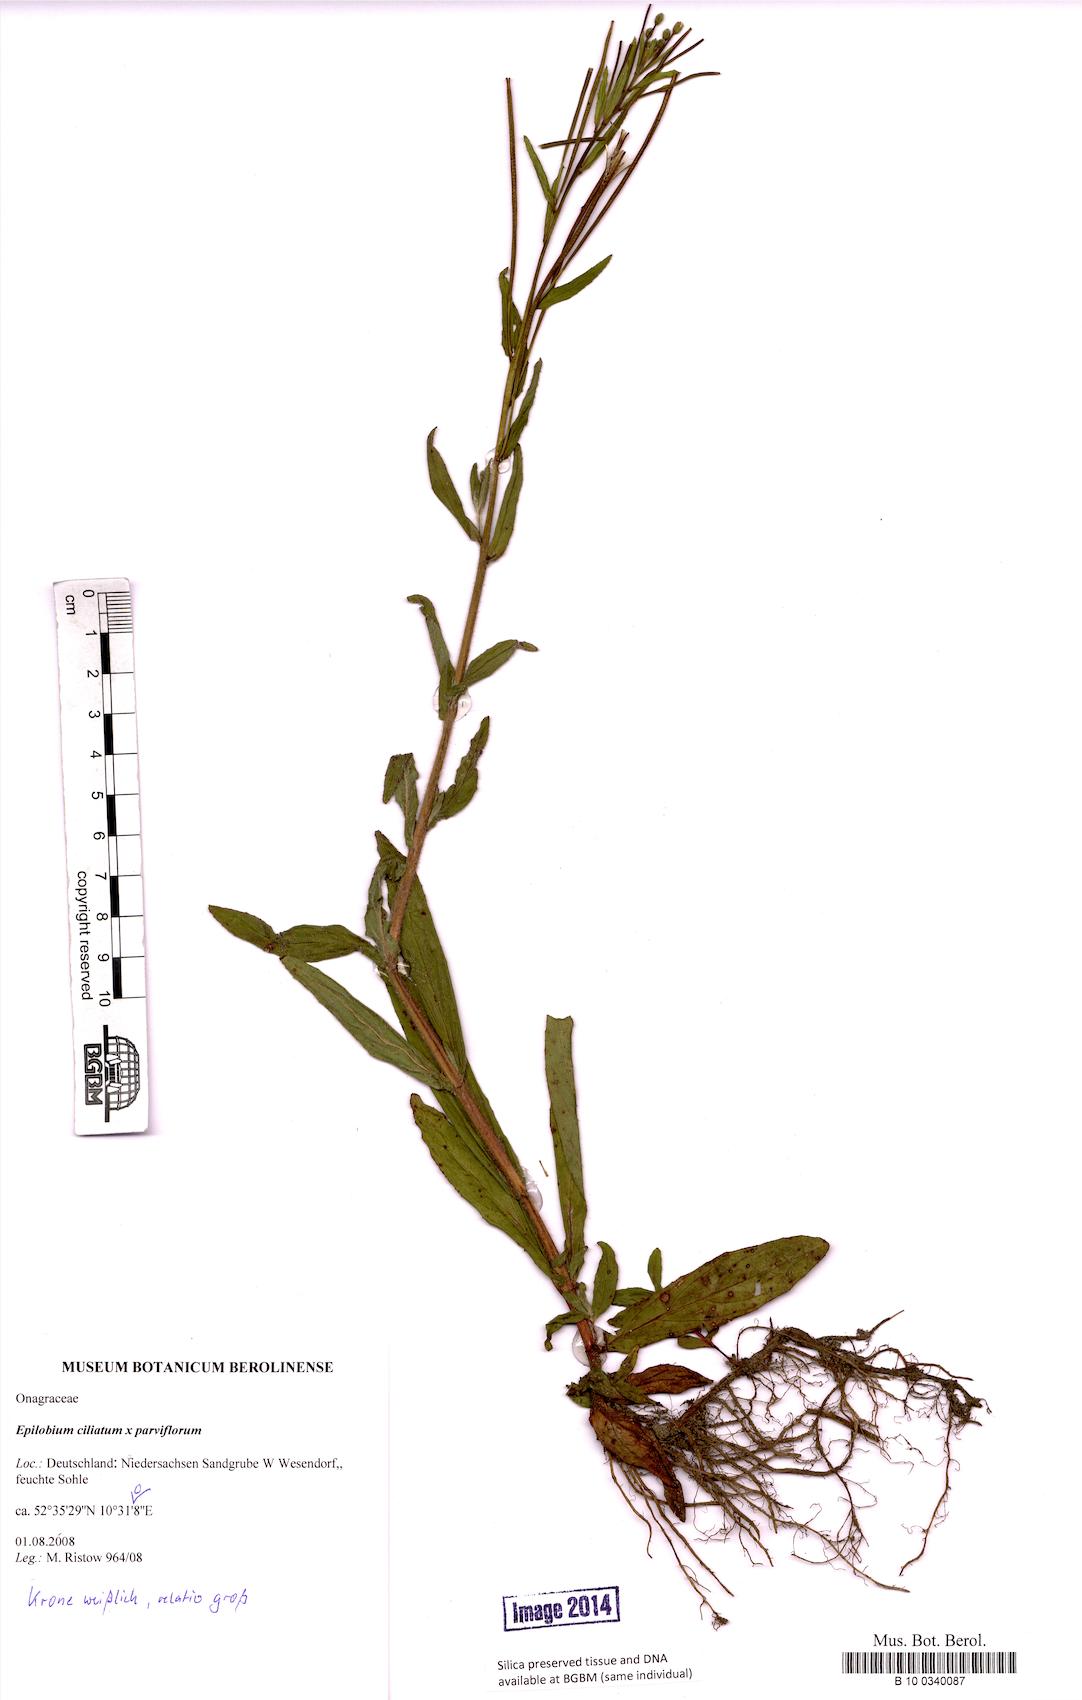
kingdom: Animalia
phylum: Arthropoda
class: Insecta
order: Hymenoptera
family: Megachilidae
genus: Epilobium
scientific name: Epilobium
